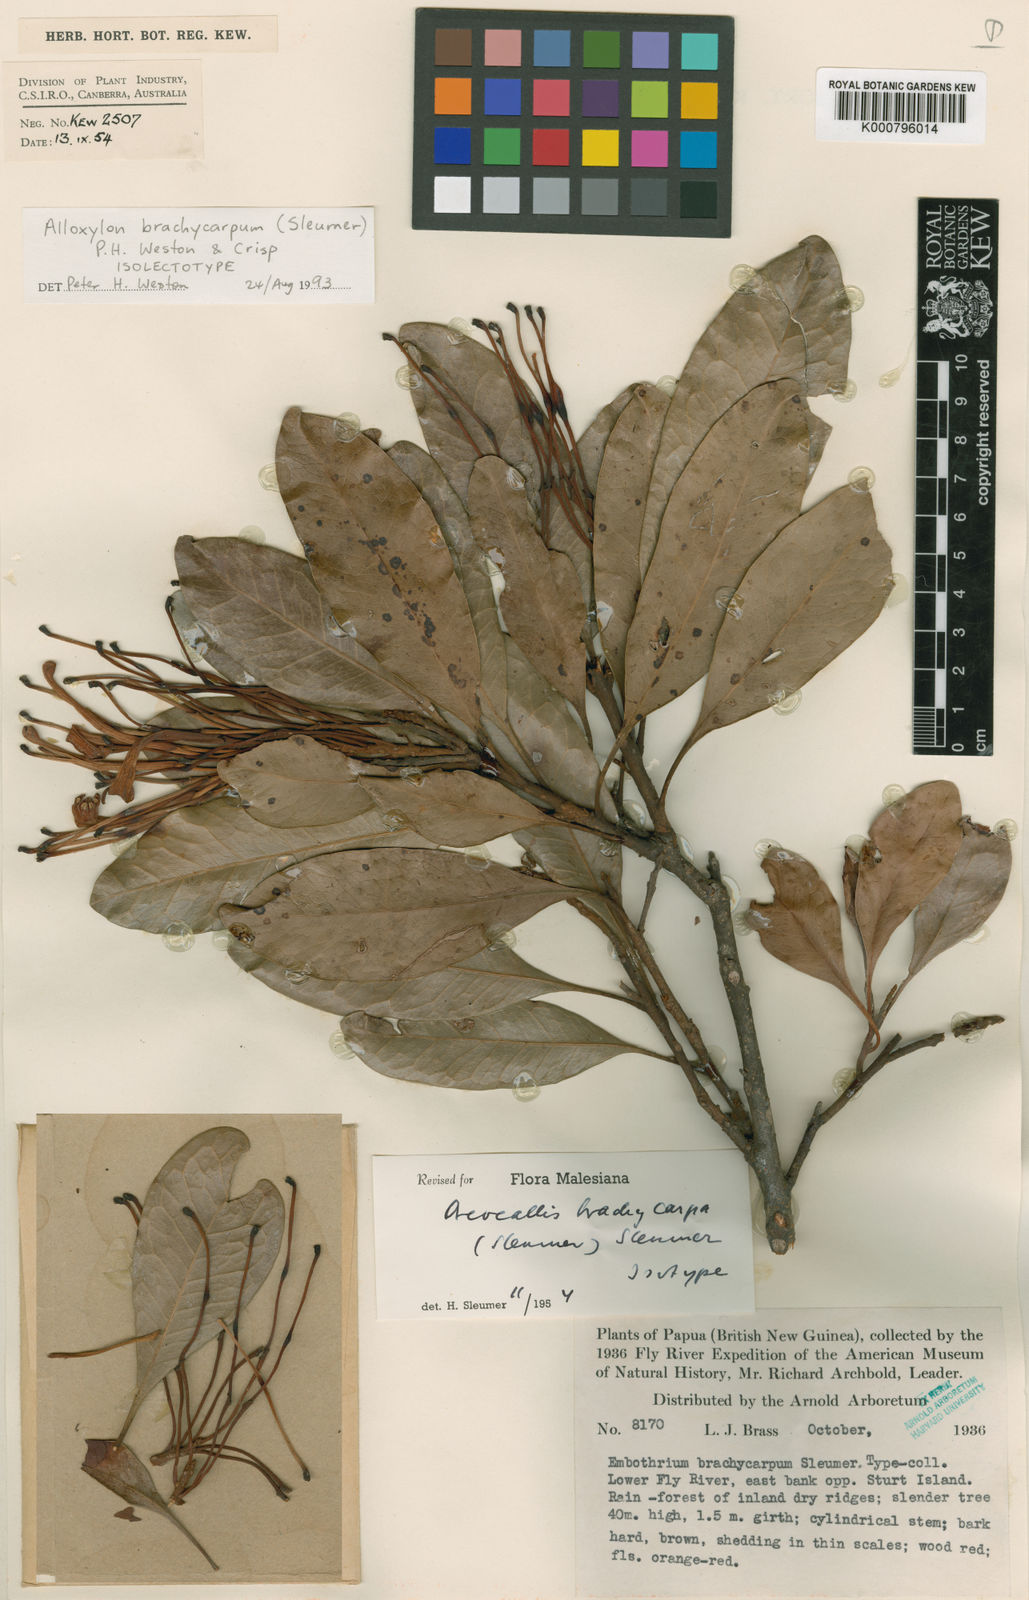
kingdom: Plantae
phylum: Tracheophyta
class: Magnoliopsida
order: Proteales
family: Proteaceae
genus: Alloxylon
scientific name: Alloxylon brachycarpum
